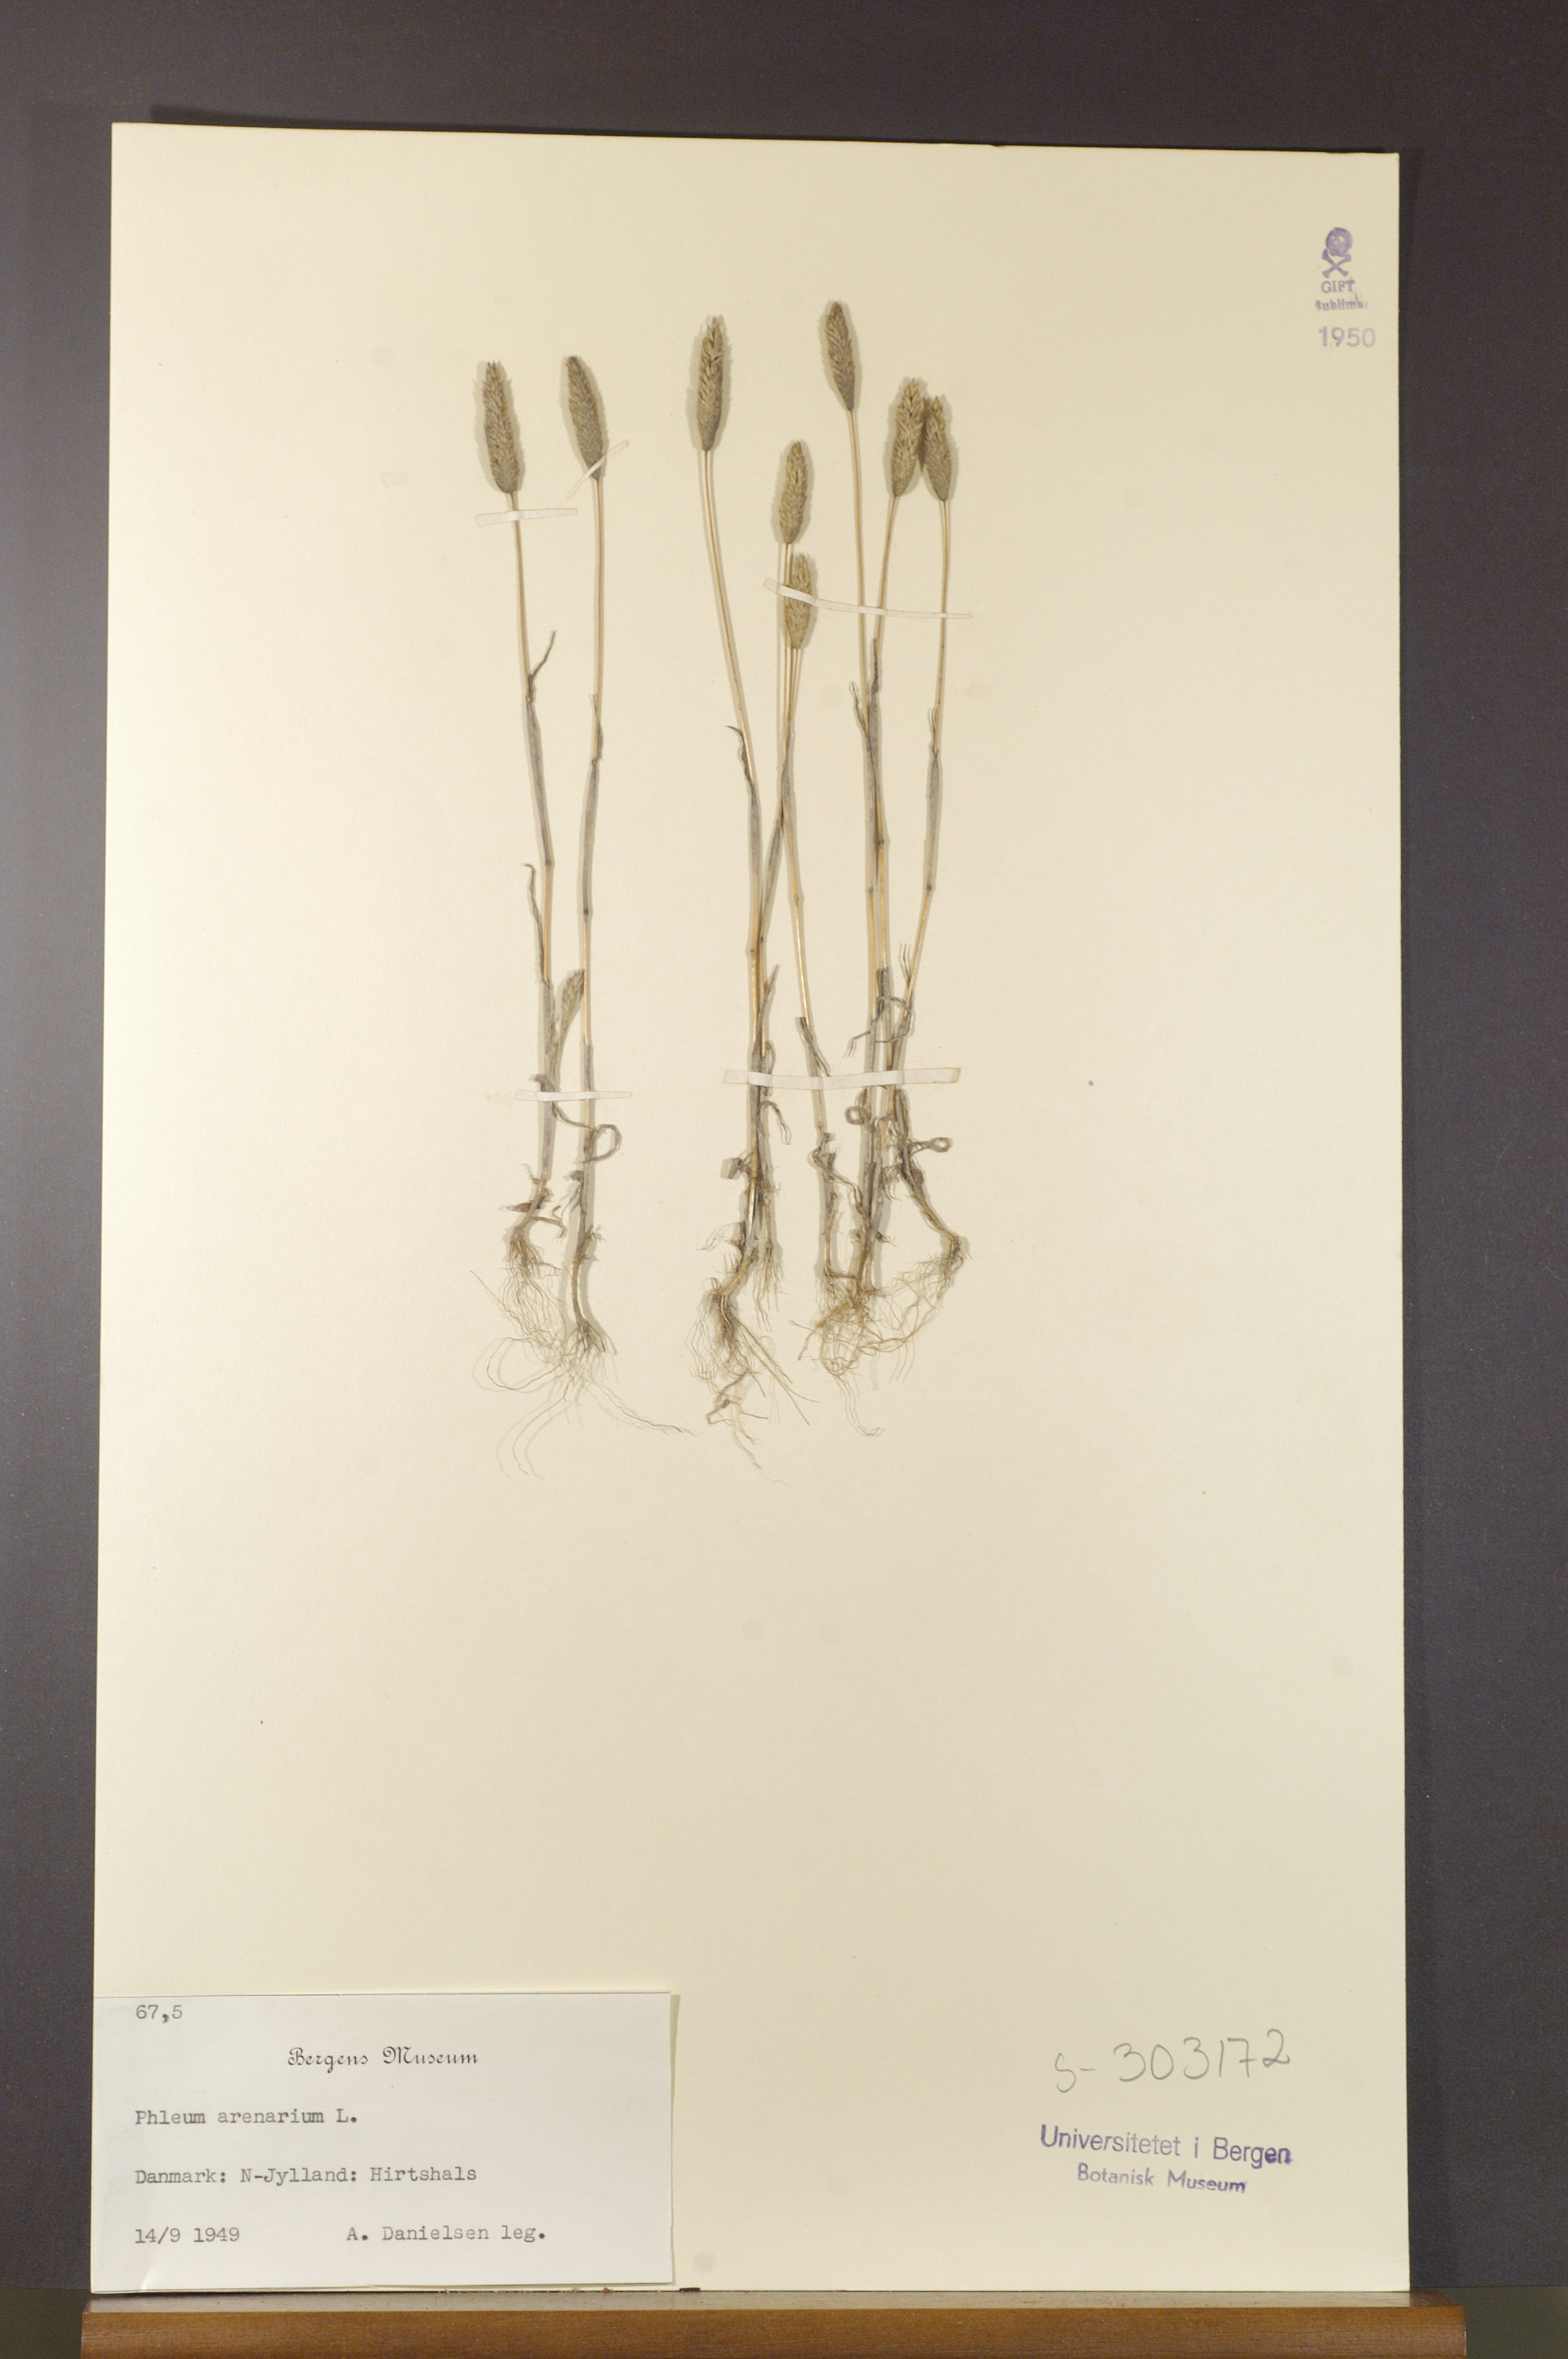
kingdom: Plantae
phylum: Tracheophyta
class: Liliopsida
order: Poales
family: Poaceae
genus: Phleum
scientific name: Phleum arenarium
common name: Sand cat's-tail
